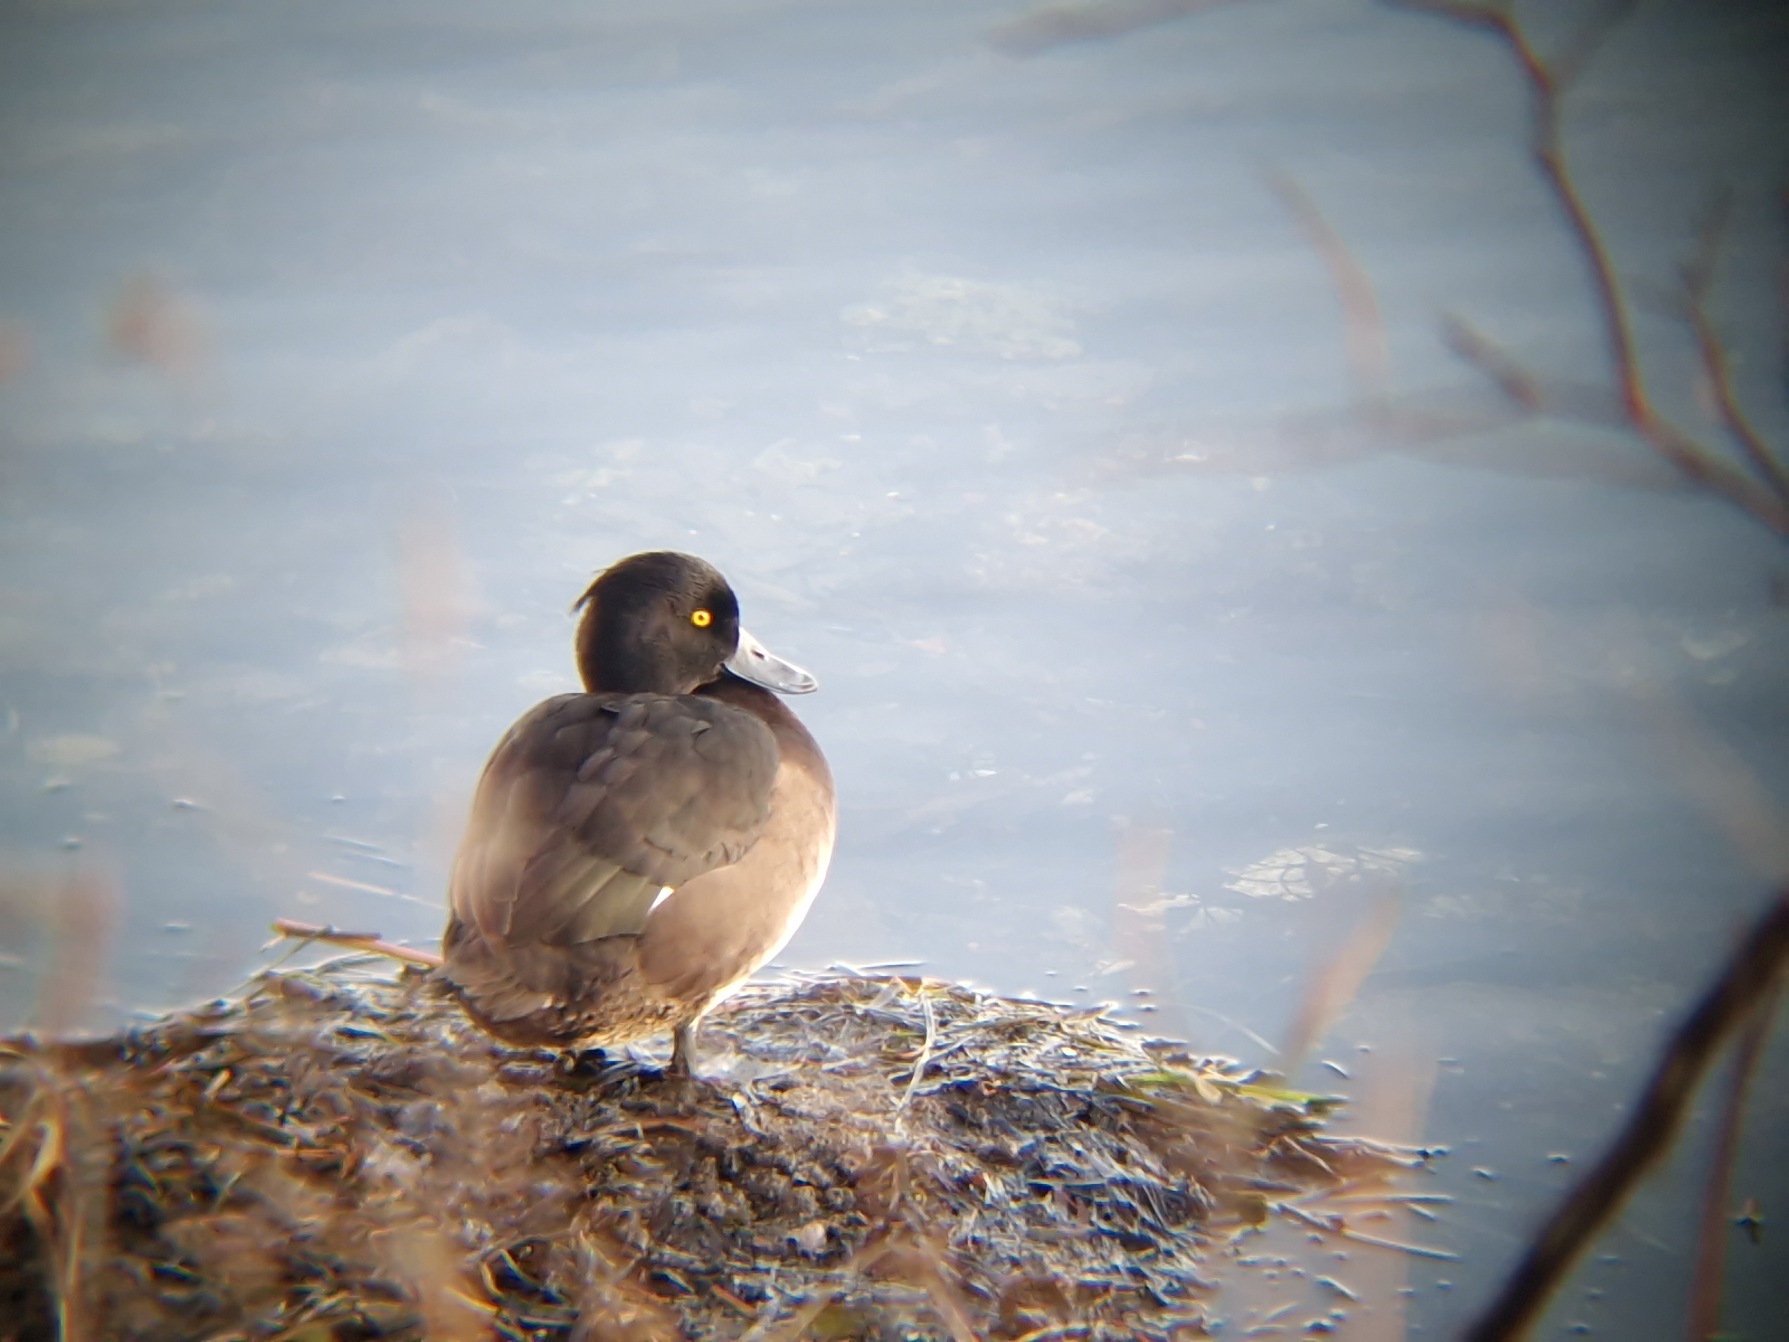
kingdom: Animalia
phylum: Chordata
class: Aves
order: Anseriformes
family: Anatidae
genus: Aythya
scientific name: Aythya fuligula
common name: Troldand
